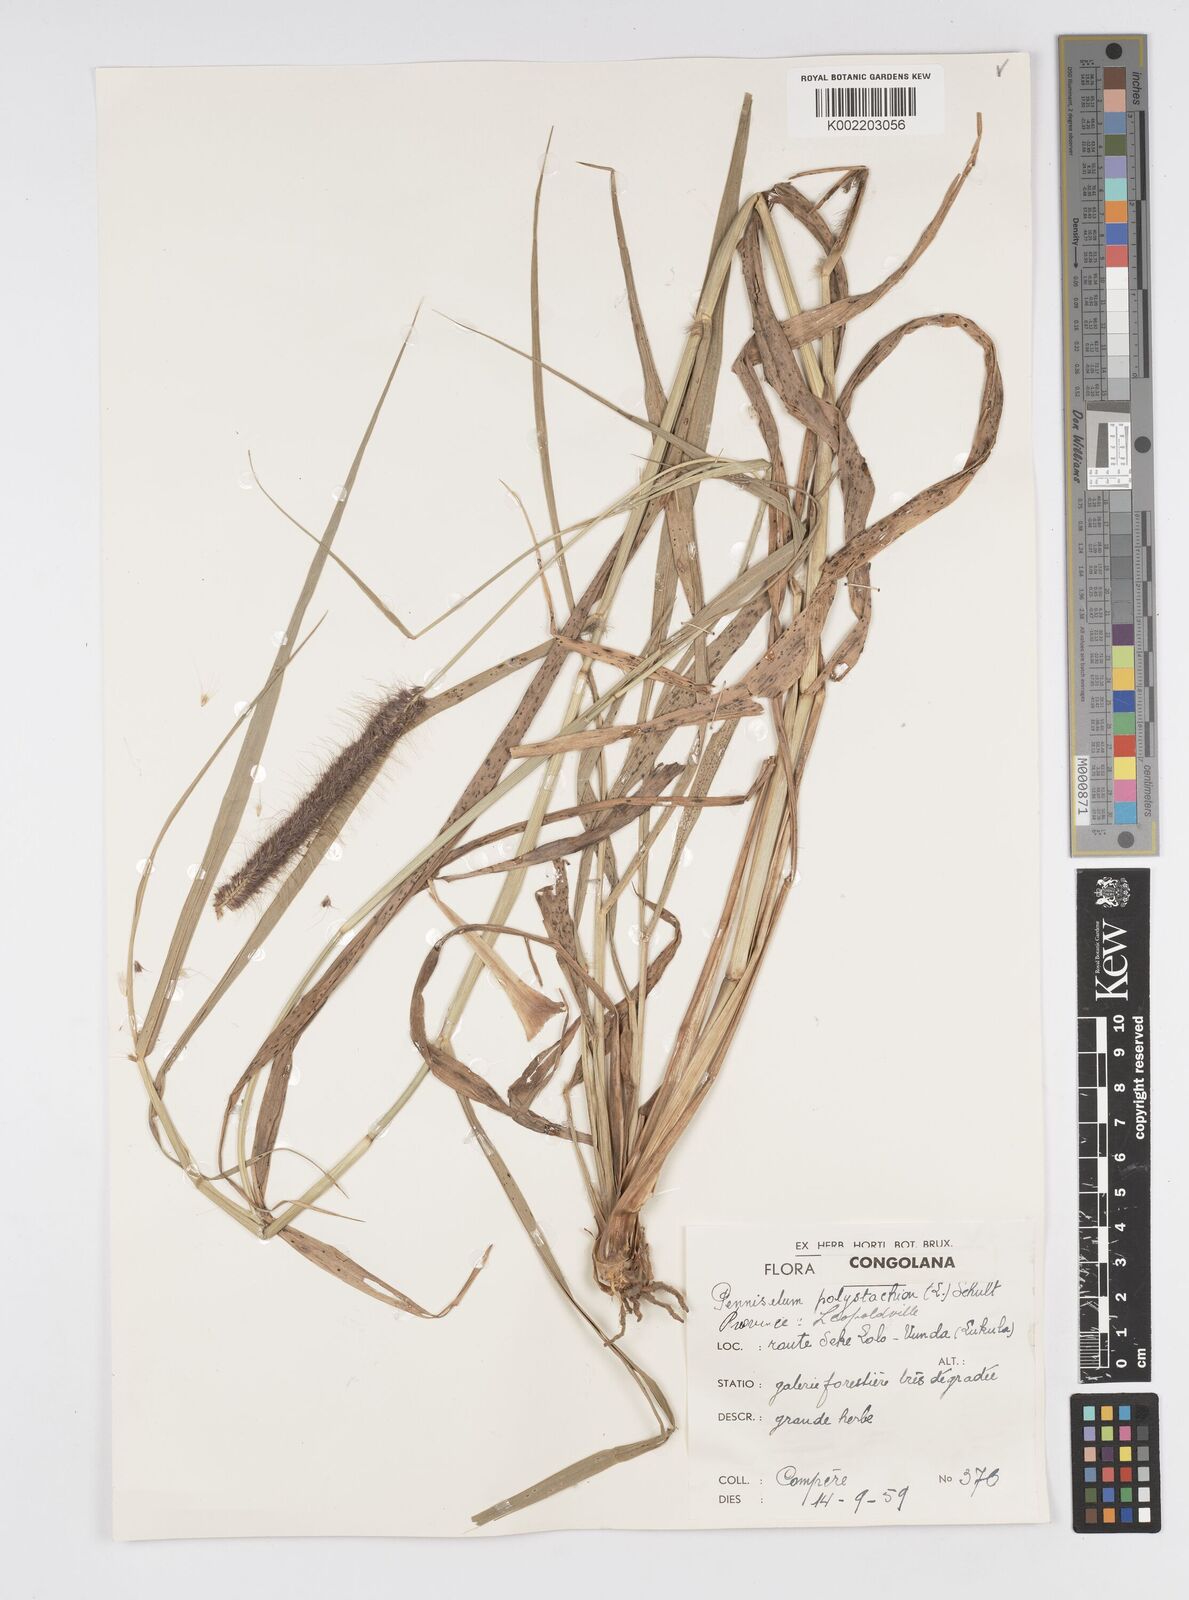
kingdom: Plantae
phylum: Tracheophyta
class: Liliopsida
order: Poales
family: Poaceae
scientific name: Poaceae
